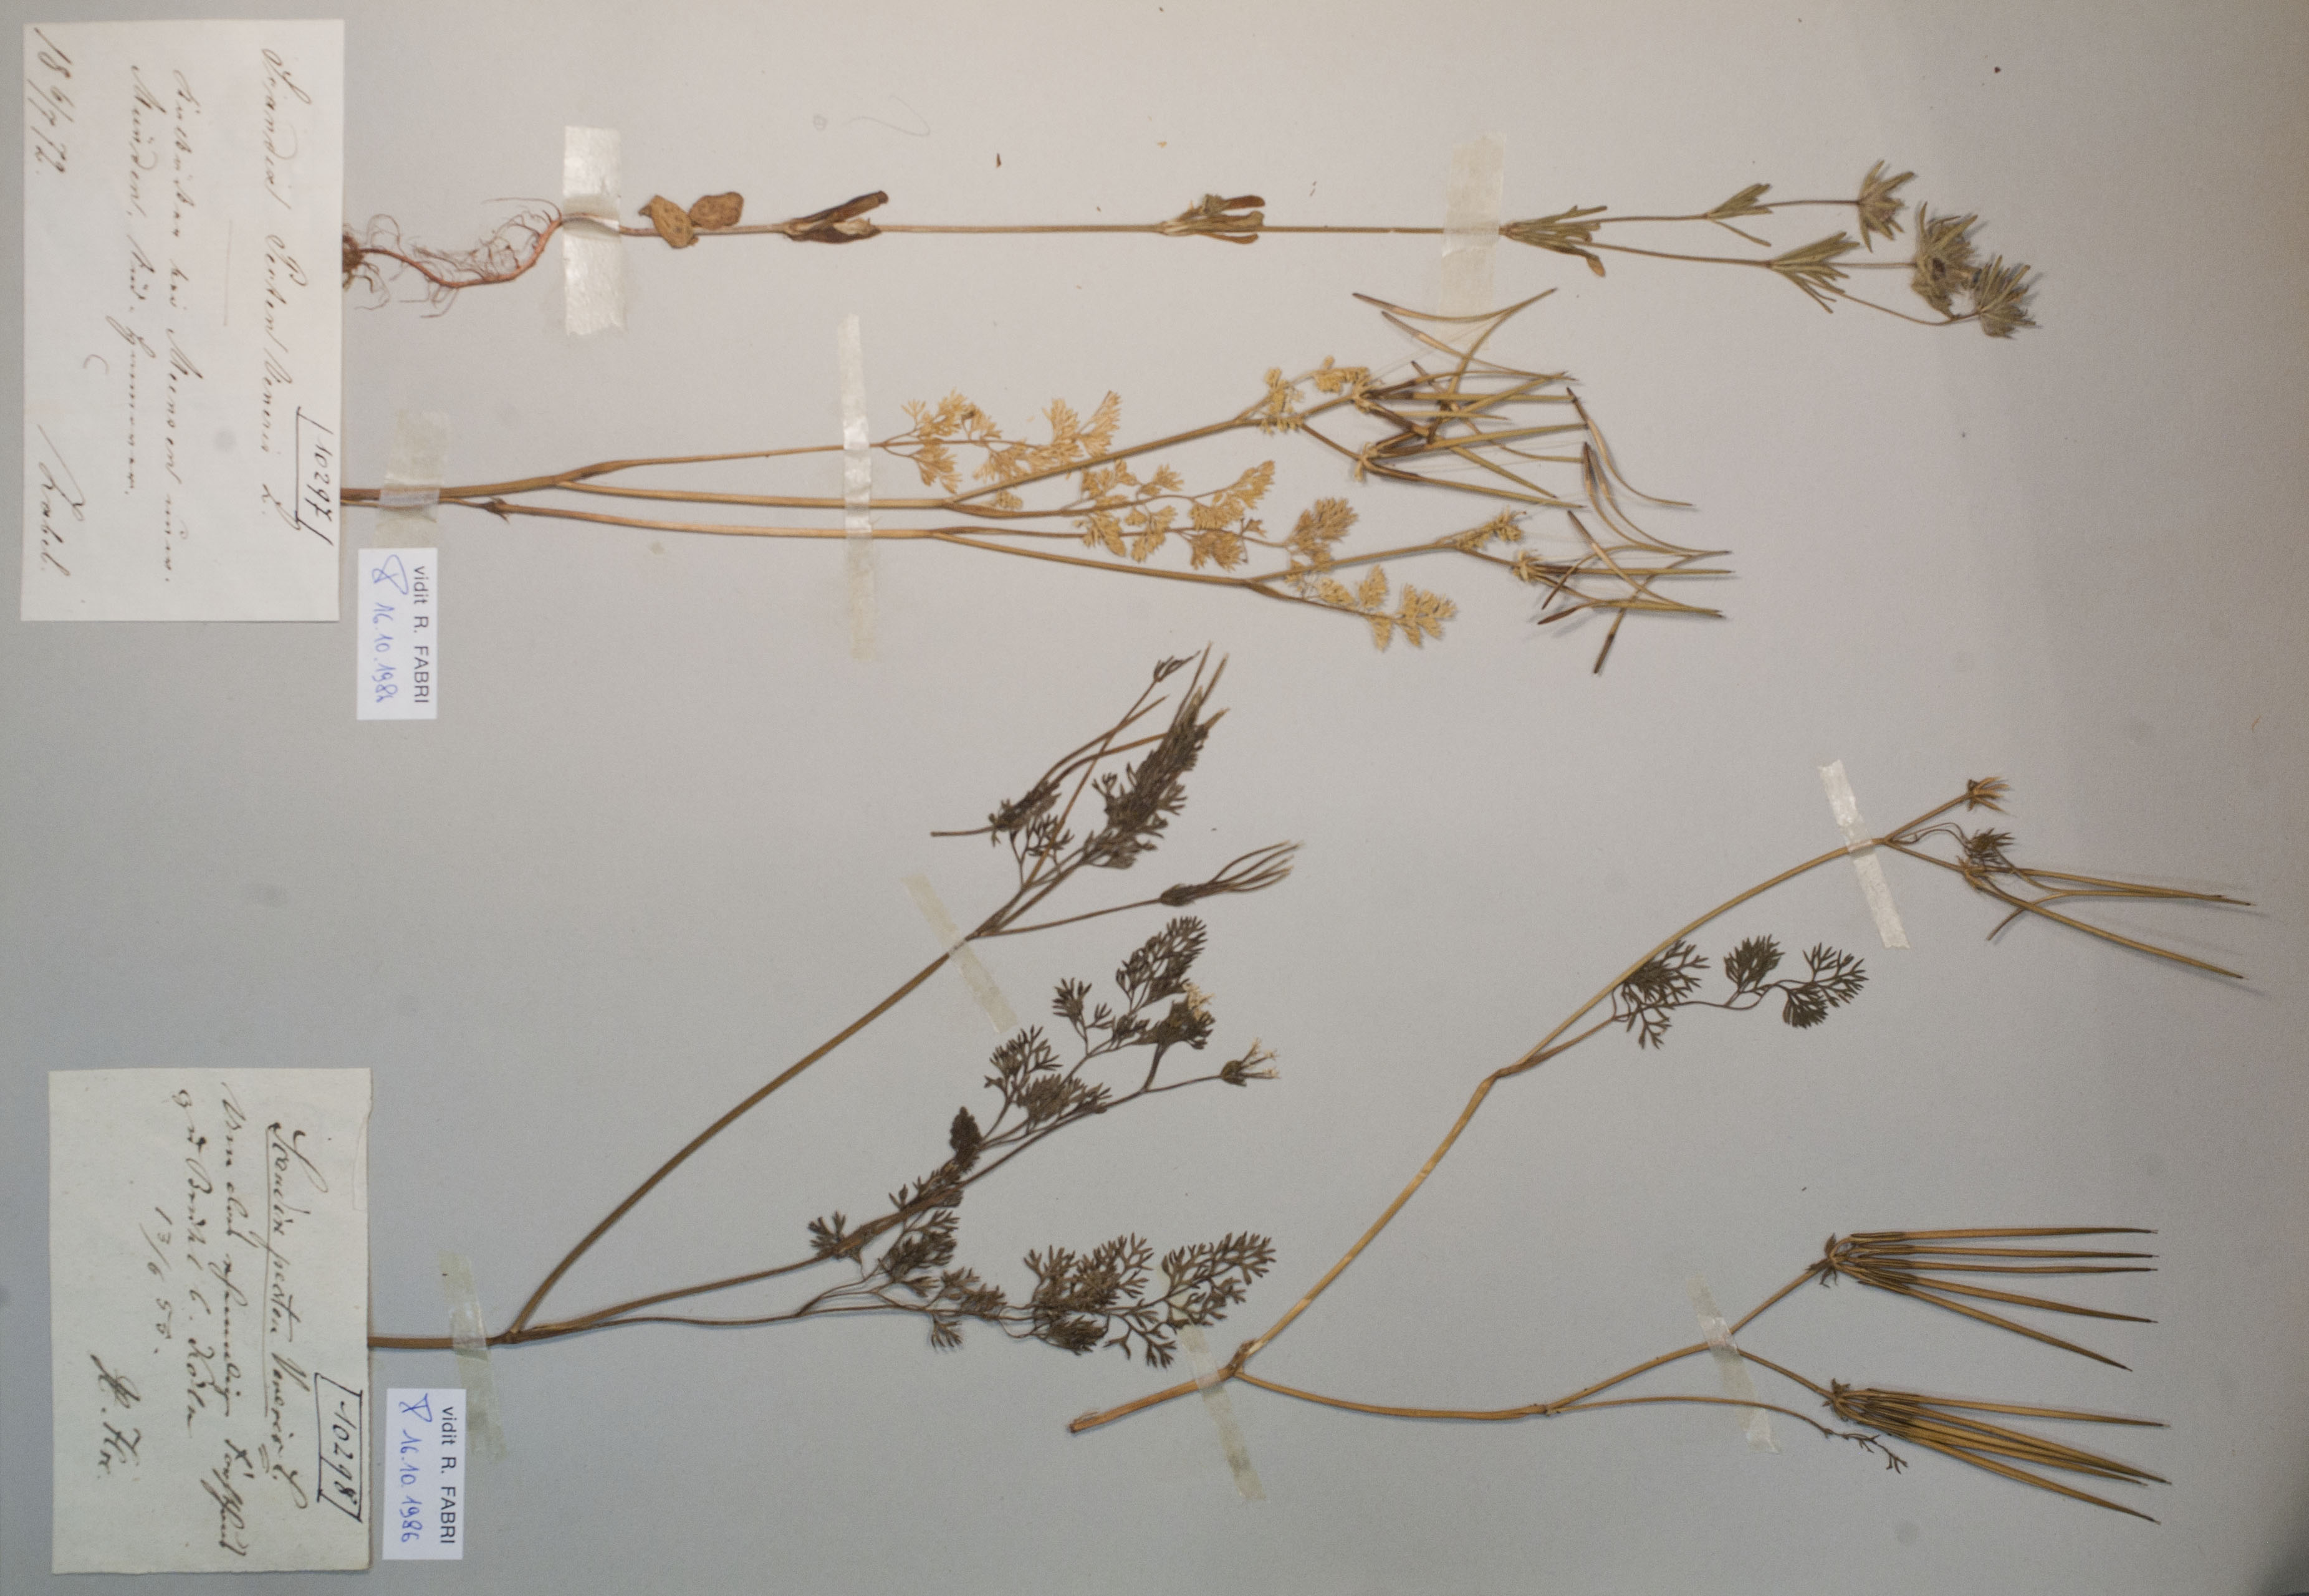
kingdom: Plantae
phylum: Tracheophyta
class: Magnoliopsida
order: Apiales
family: Apiaceae
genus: Scandix
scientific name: Scandix pecten-veneris
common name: Shepherd's-needle
